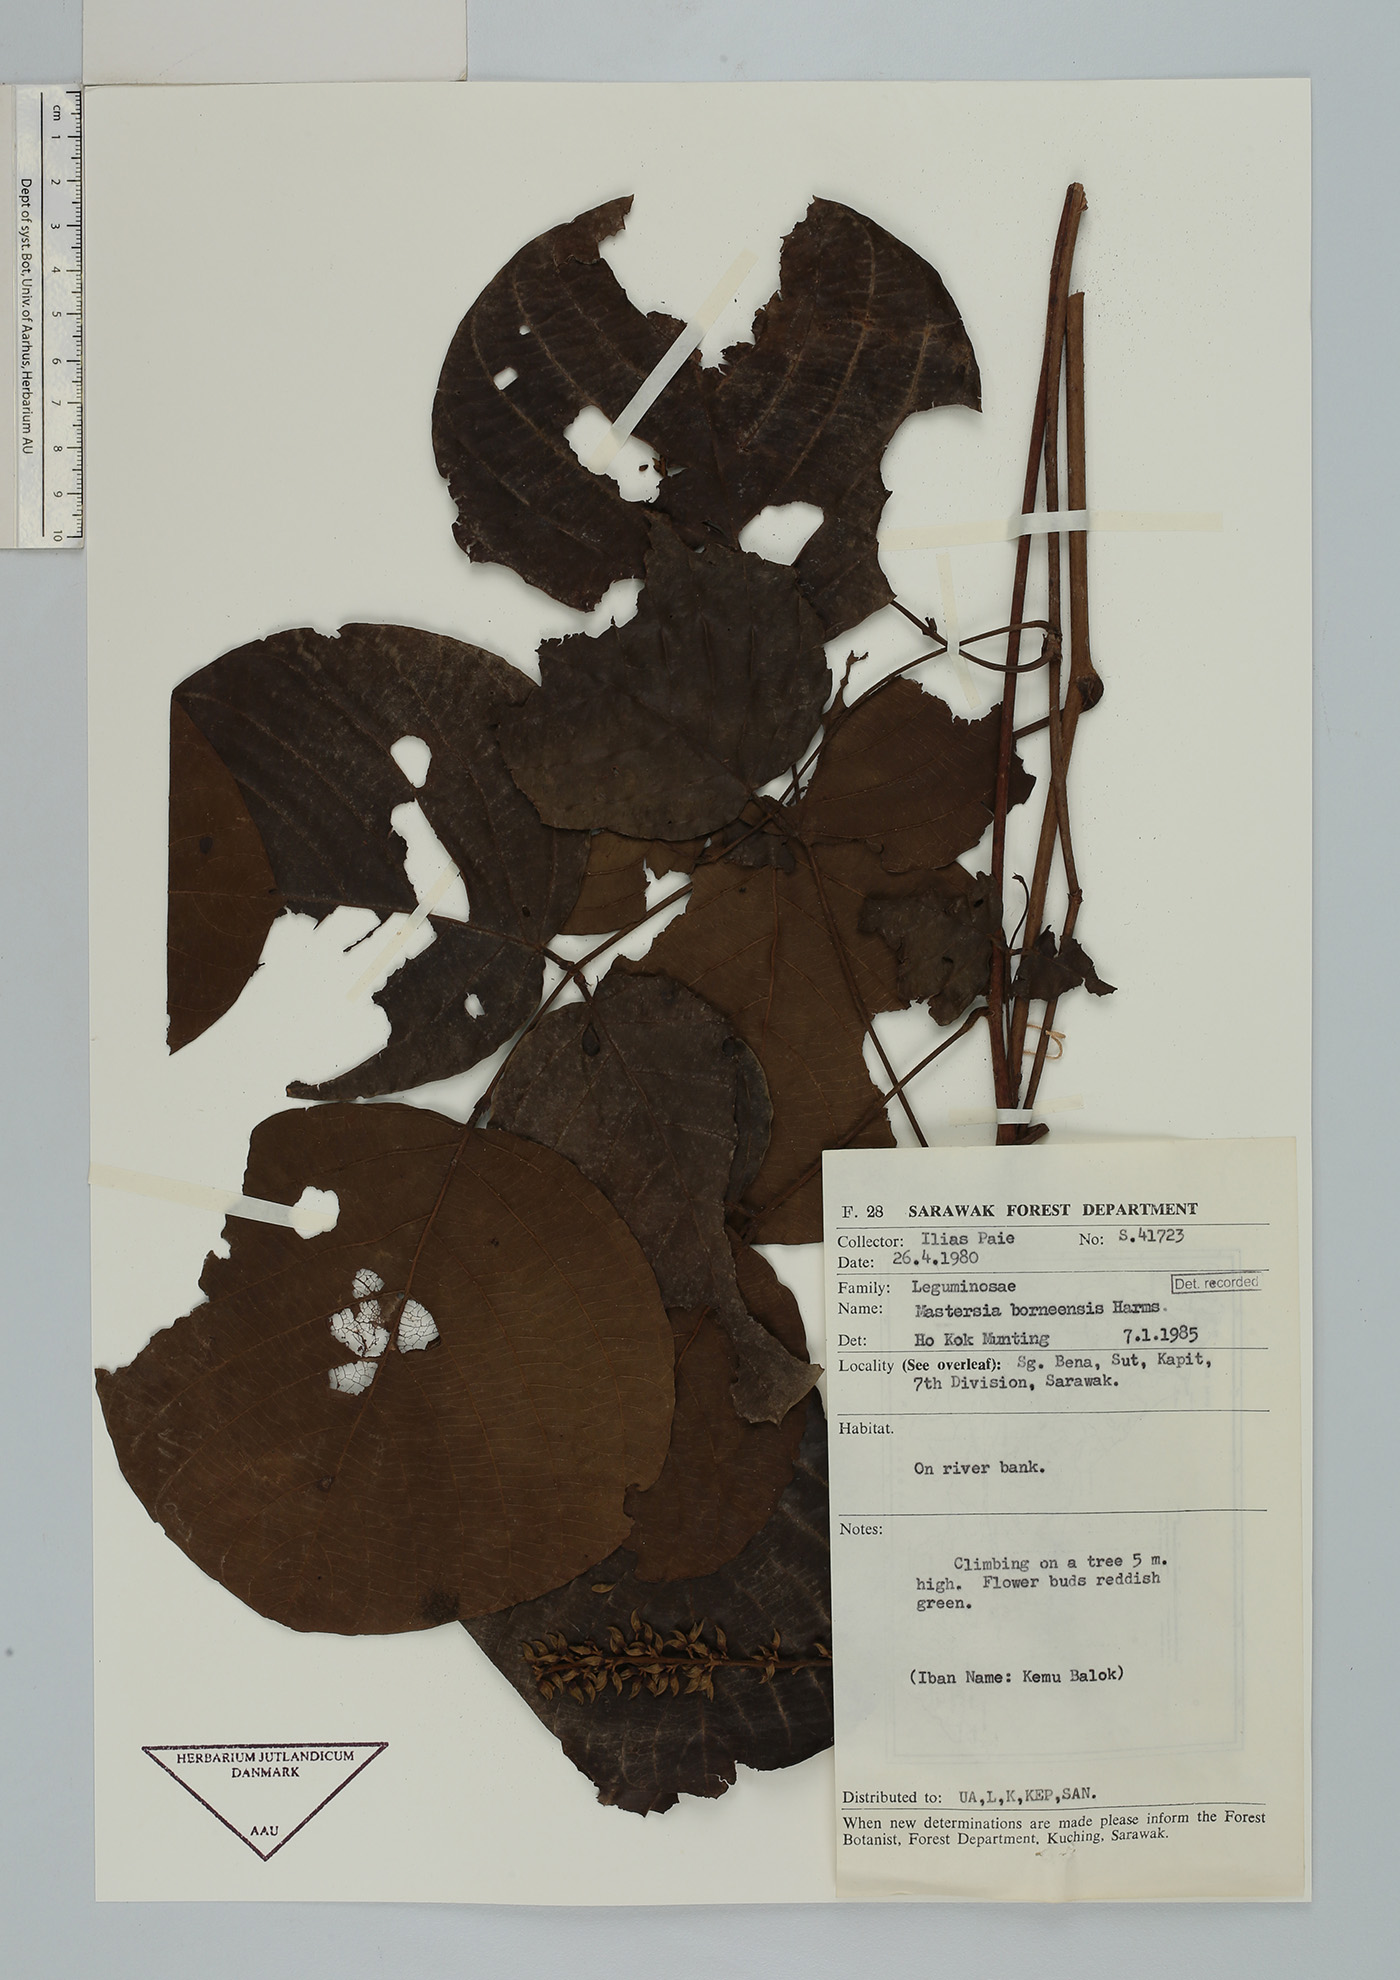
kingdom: Plantae
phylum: Tracheophyta
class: Magnoliopsida
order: Fabales
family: Fabaceae
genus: Mastersia
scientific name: Mastersia bakeri
